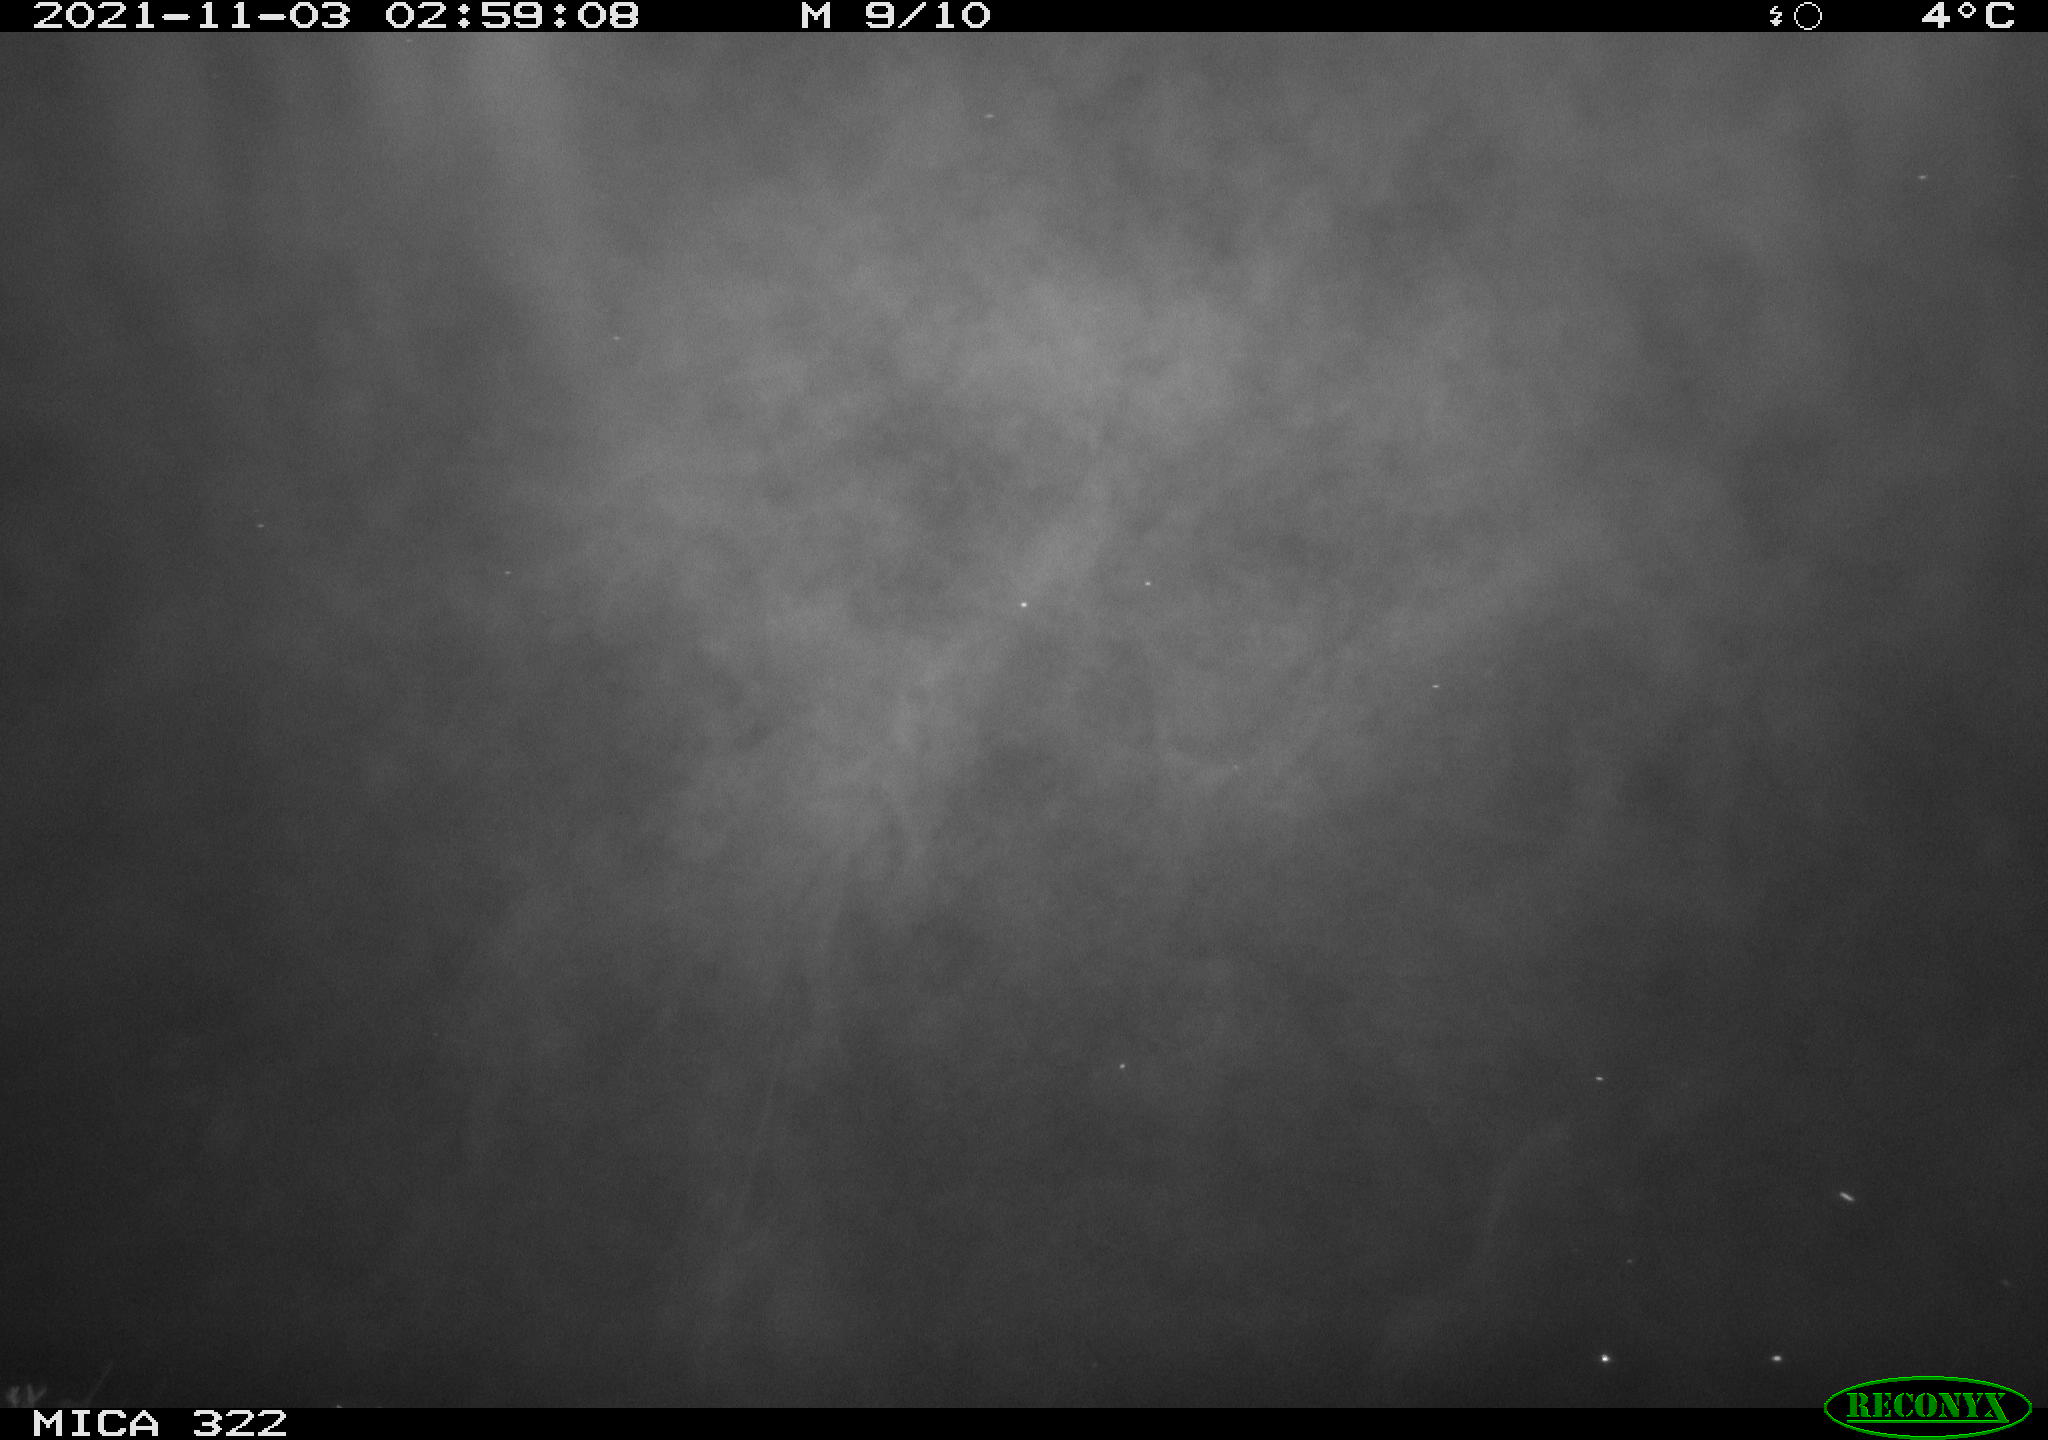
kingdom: Animalia
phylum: Chordata
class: Mammalia
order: Rodentia
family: Cricetidae
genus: Ondatra
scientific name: Ondatra zibethicus
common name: Muskrat
